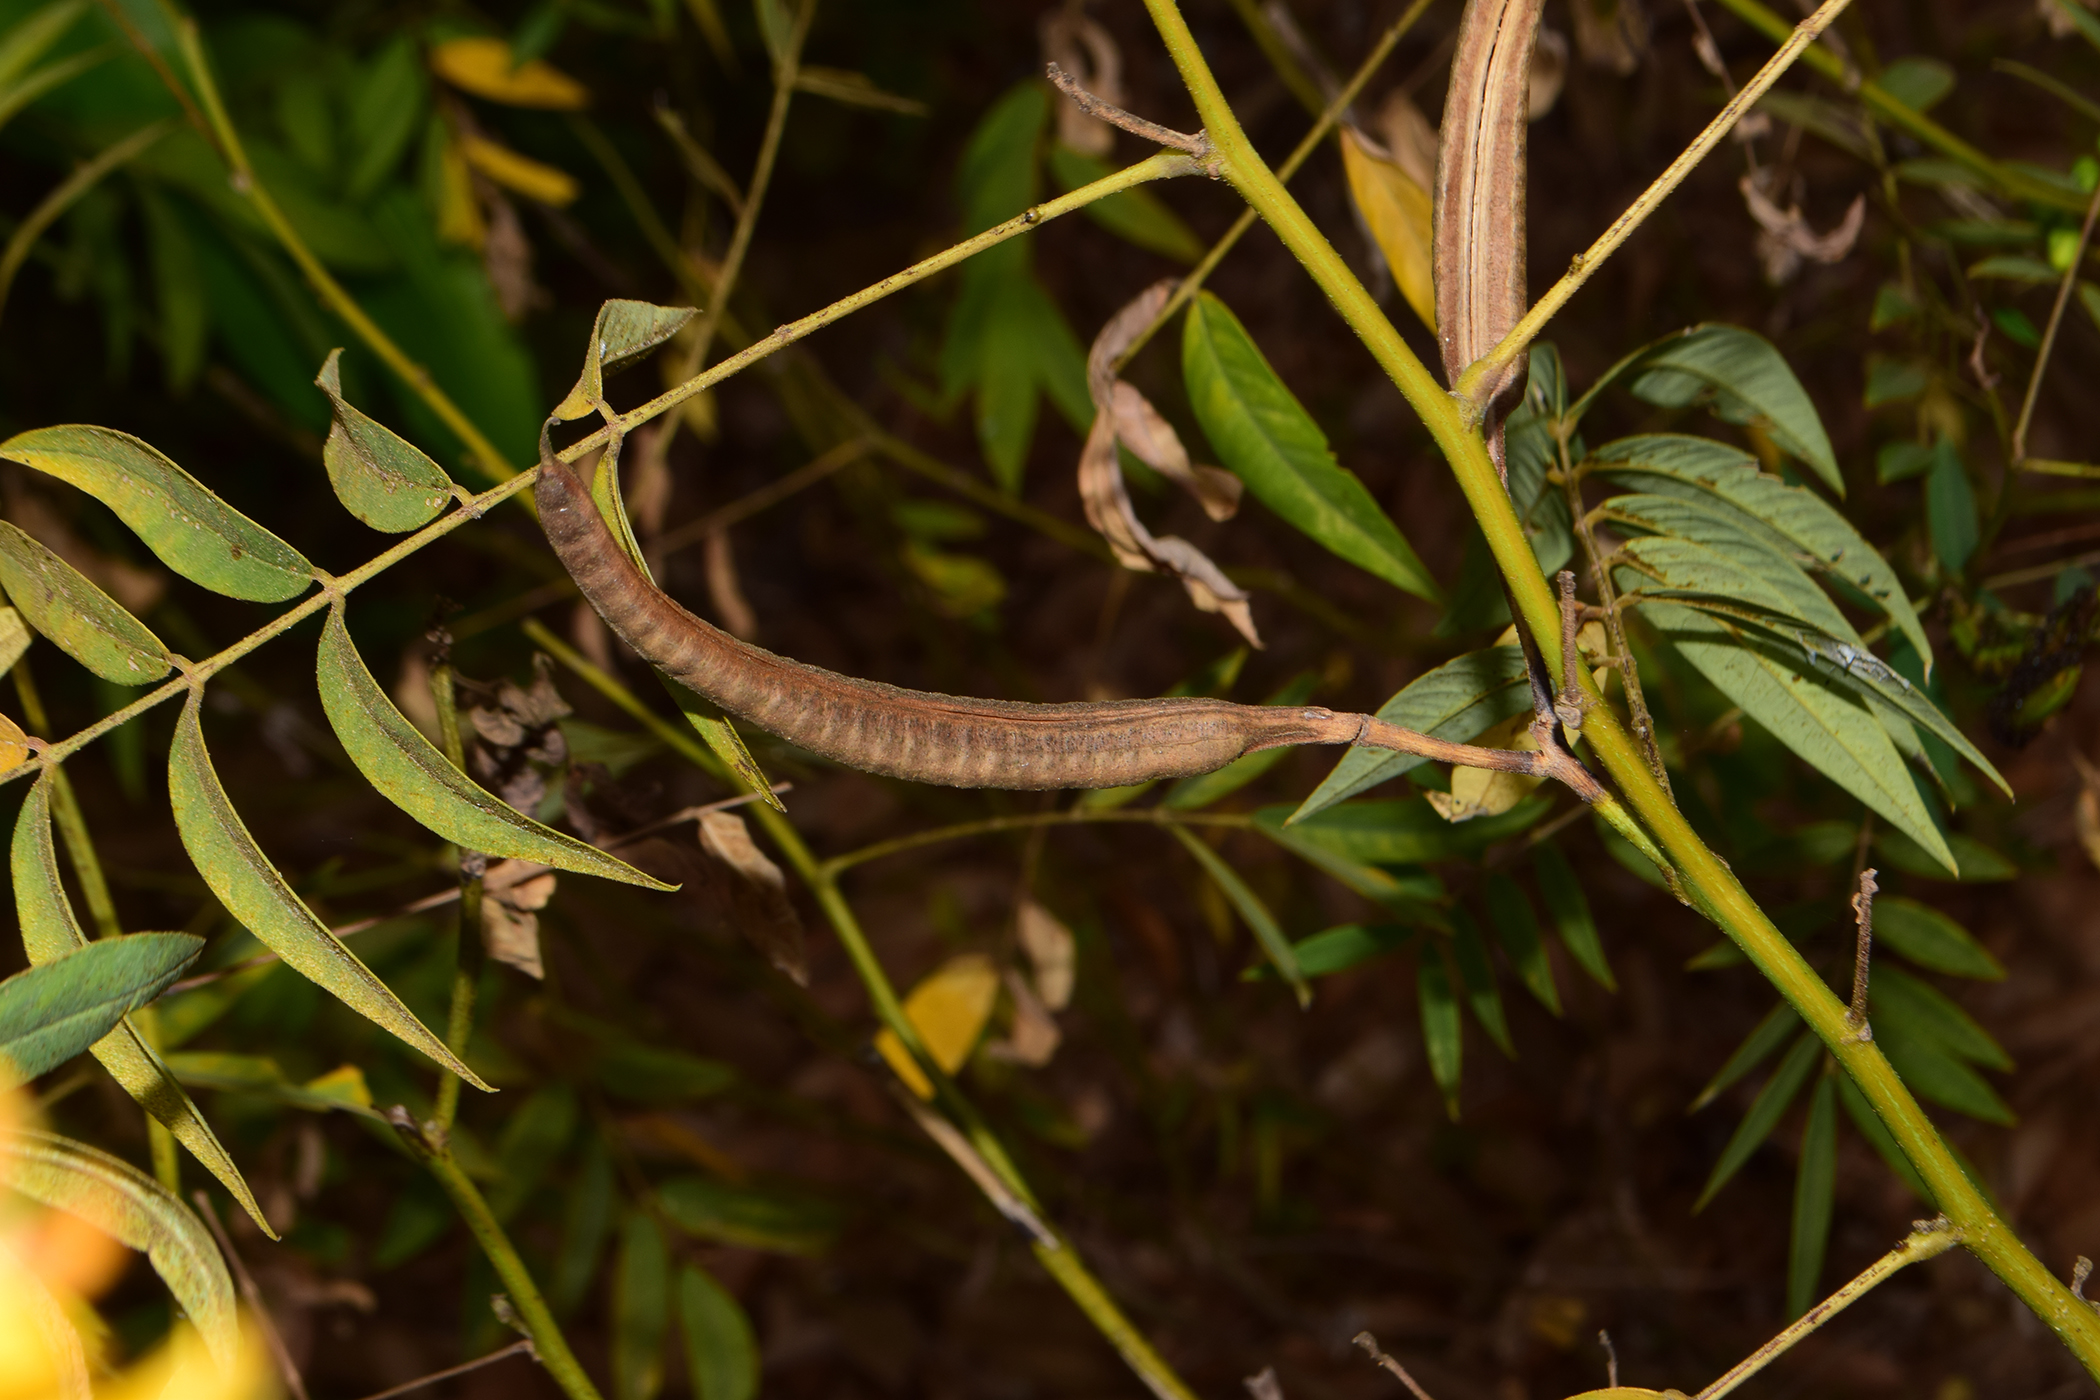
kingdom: Plantae
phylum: Tracheophyta
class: Magnoliopsida
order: Fabales
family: Fabaceae
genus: Senna
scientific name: Senna sophera
